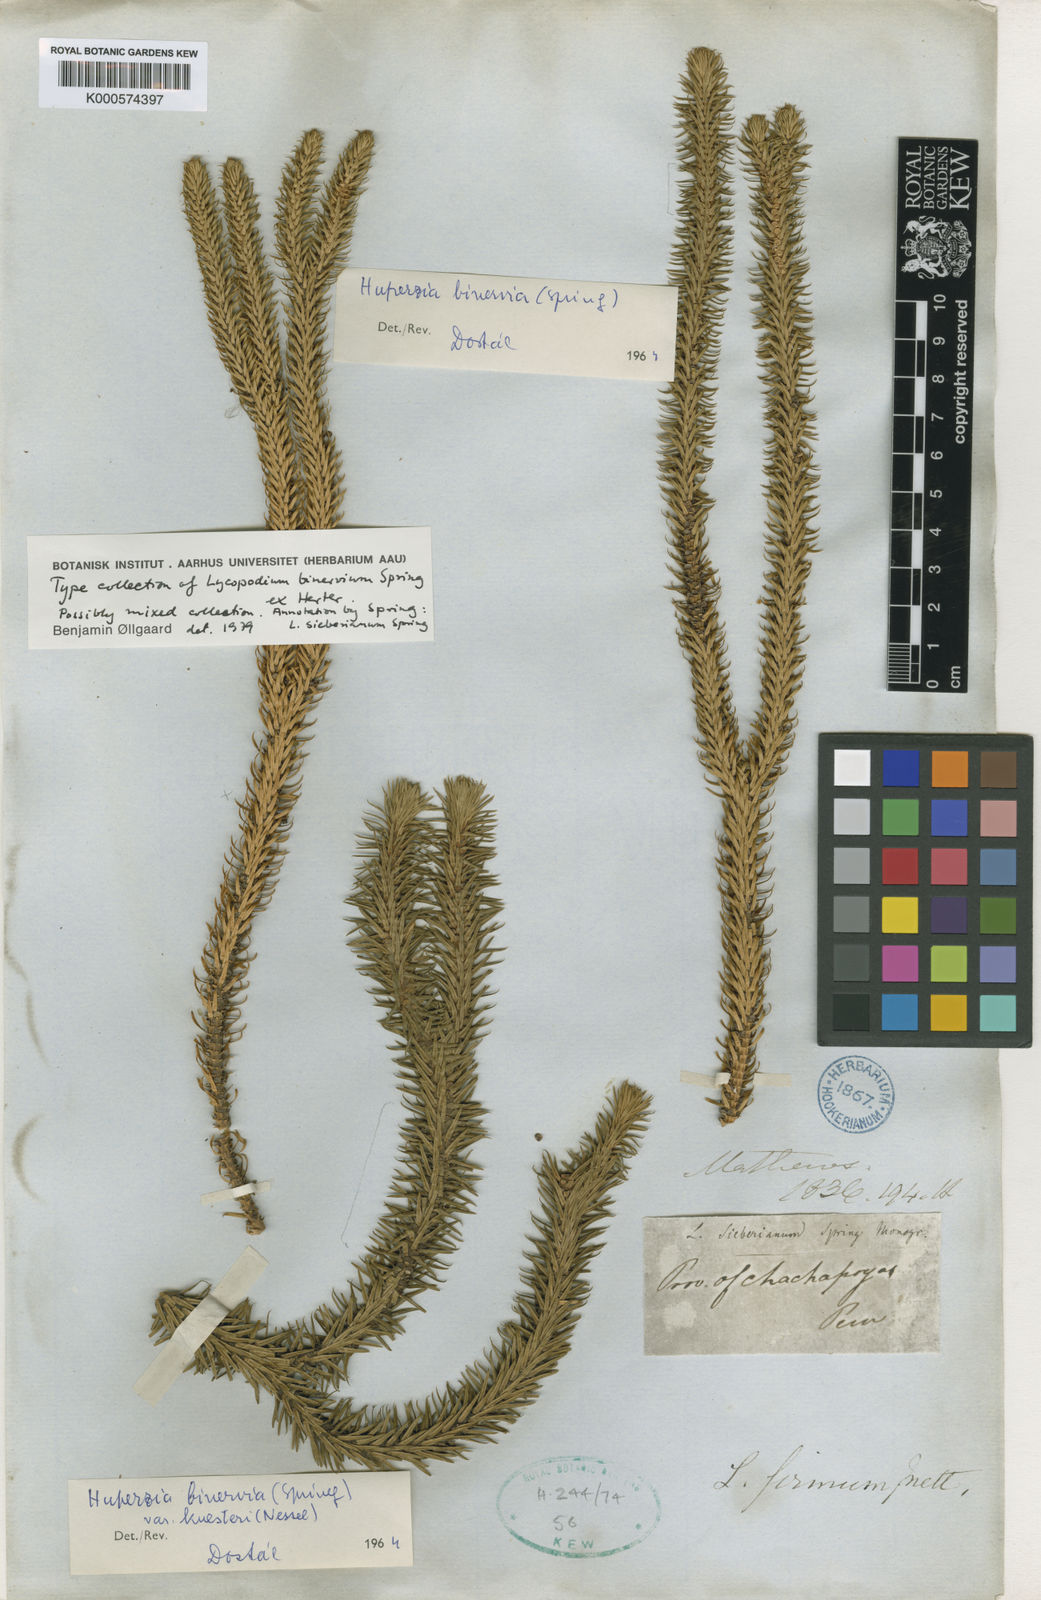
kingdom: Plantae
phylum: Tracheophyta
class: Lycopodiopsida
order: Lycopodiales
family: Lycopodiaceae
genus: Phlegmariurus
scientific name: Phlegmariurus binervius
